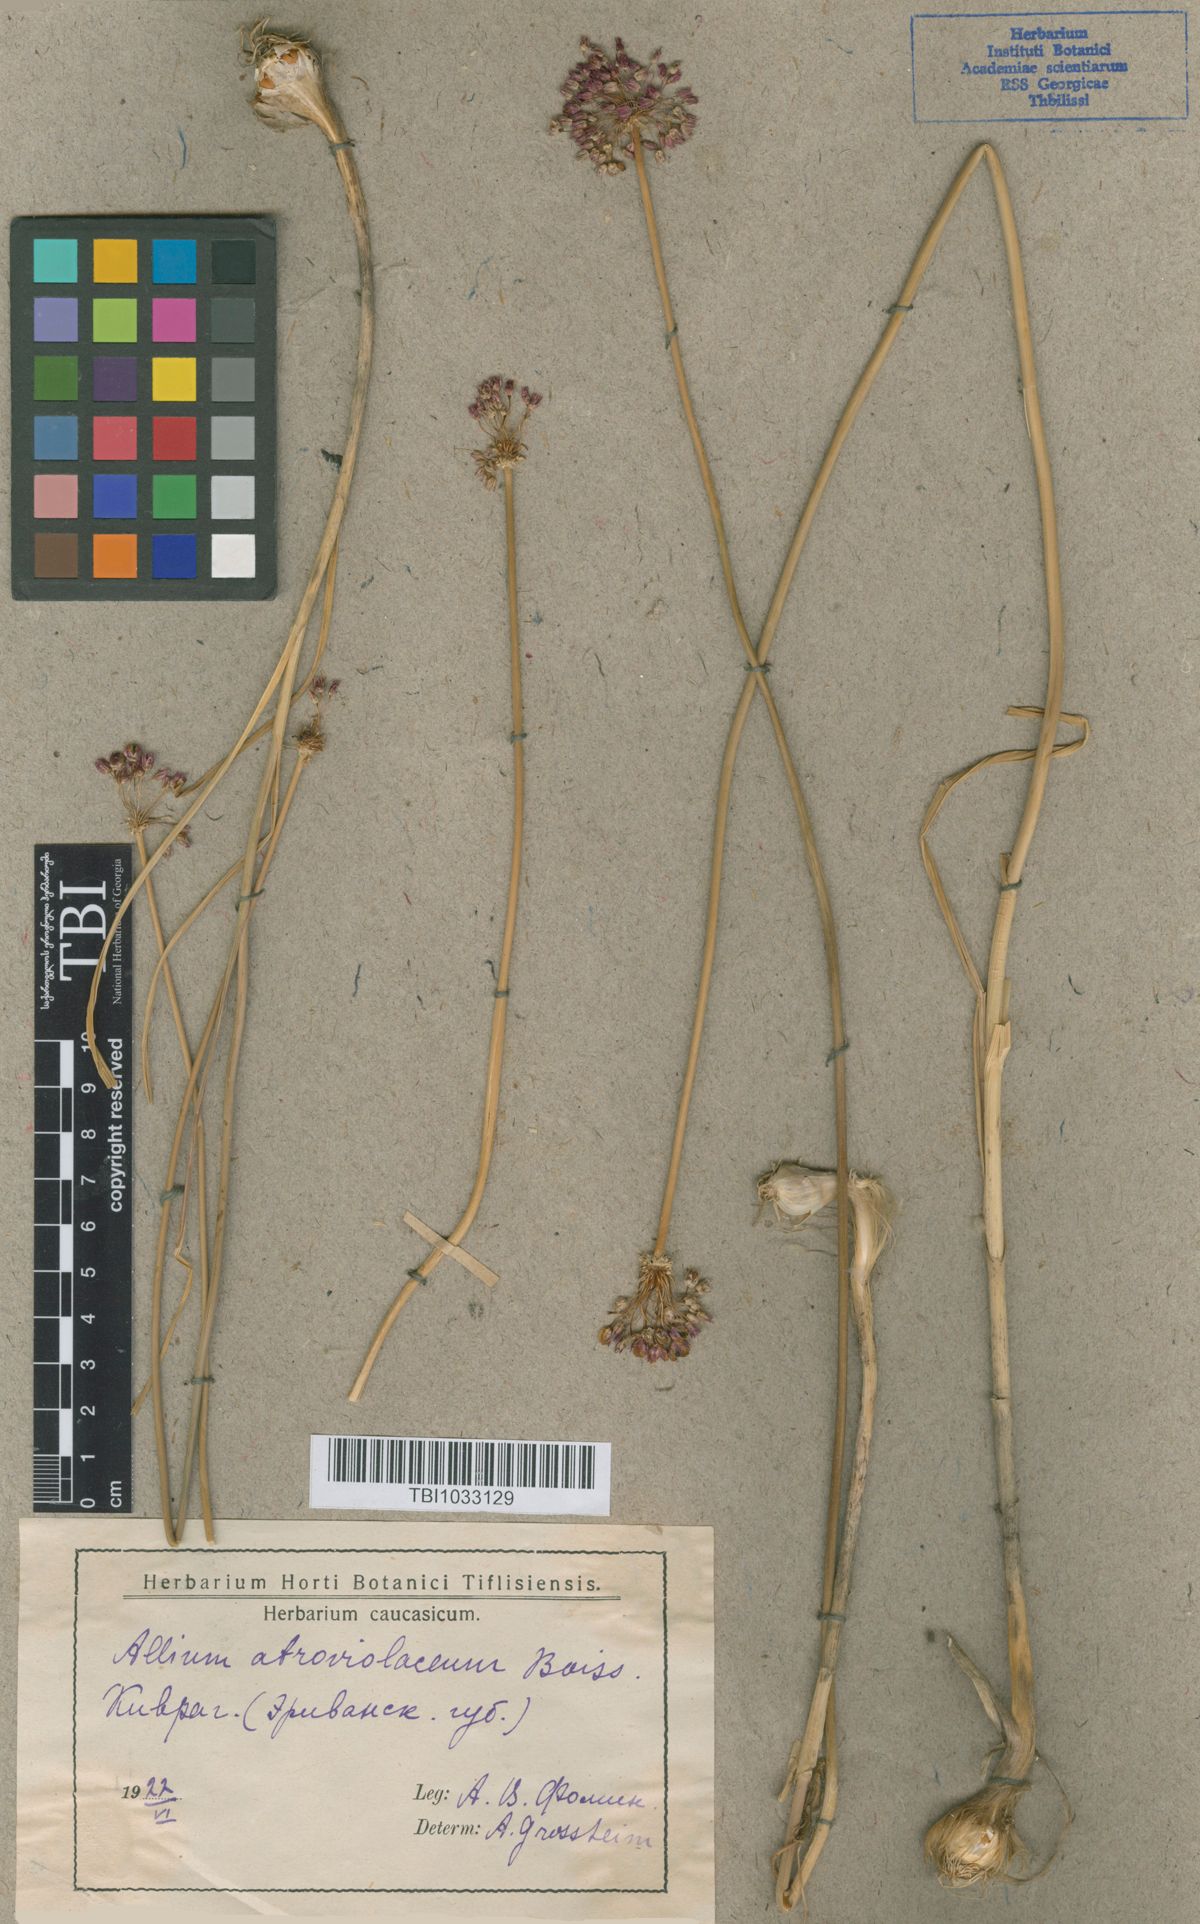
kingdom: Plantae
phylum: Tracheophyta
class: Liliopsida
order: Asparagales
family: Amaryllidaceae
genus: Allium
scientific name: Allium atroviolaceum
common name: Broadleaf wild leek
